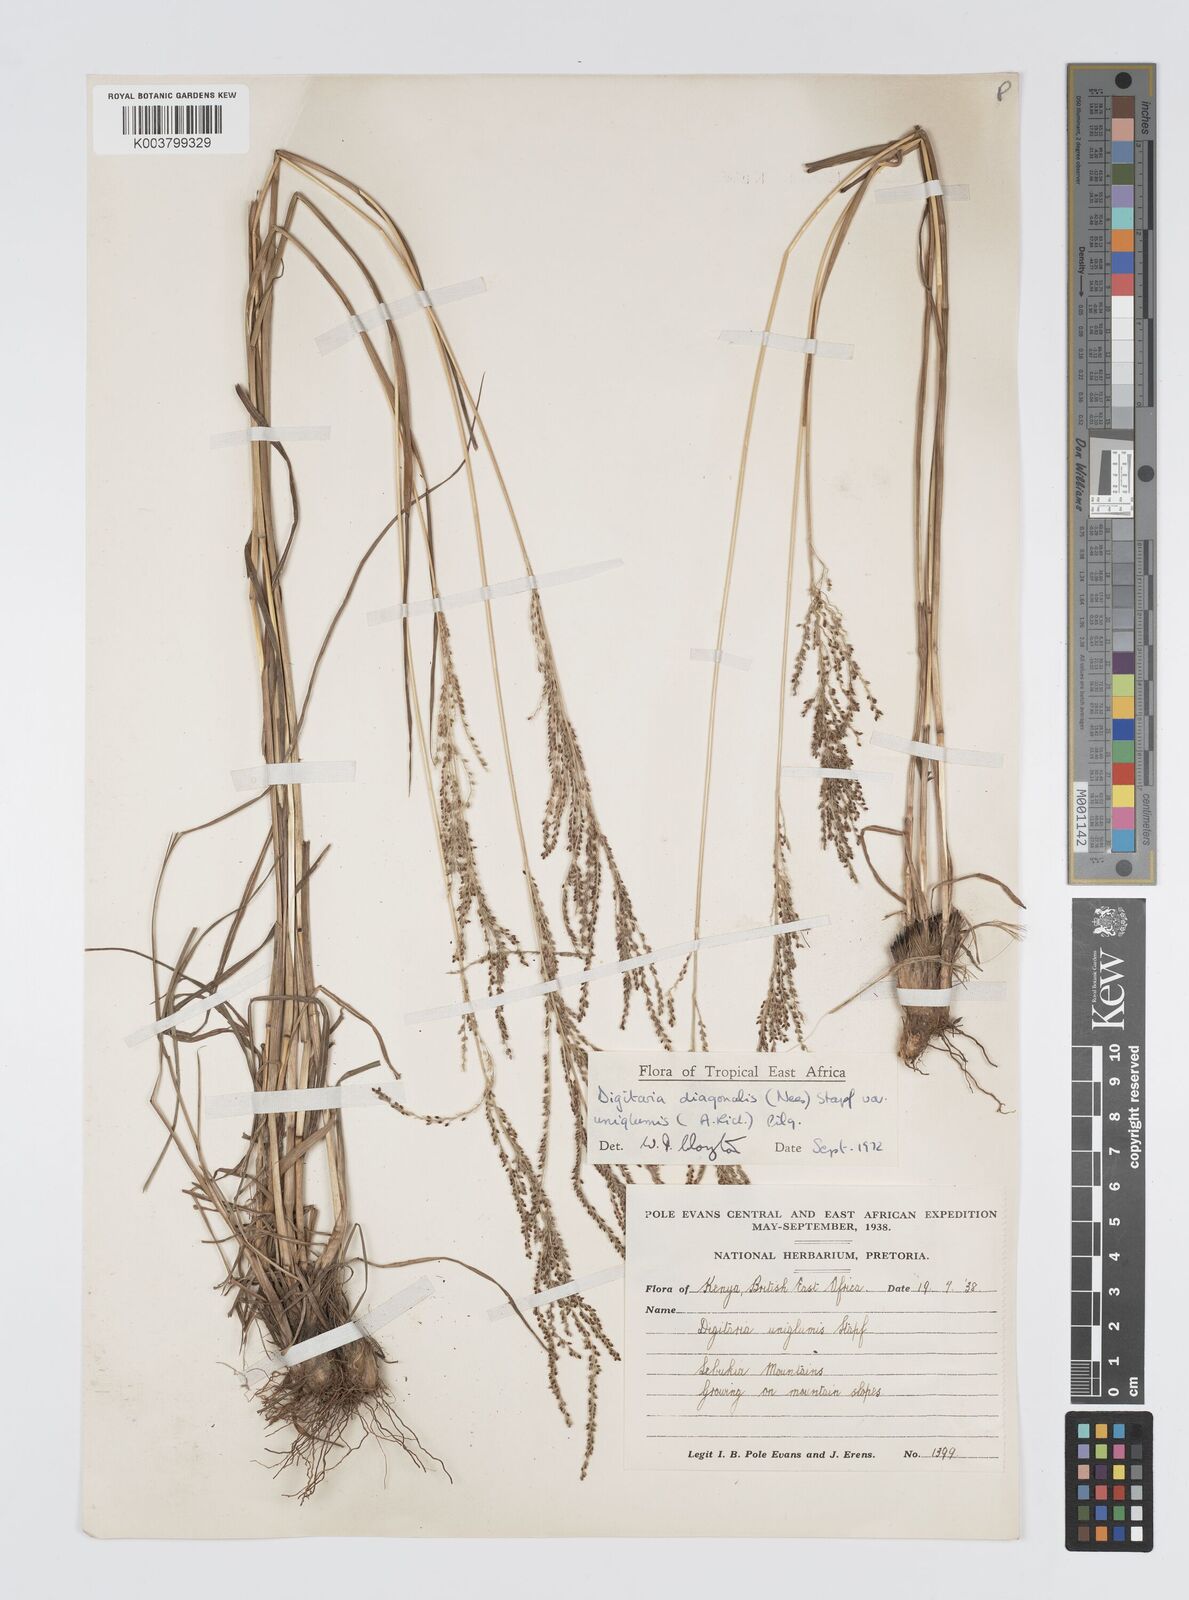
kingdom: Plantae
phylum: Tracheophyta
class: Liliopsida
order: Poales
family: Poaceae
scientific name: Poaceae
